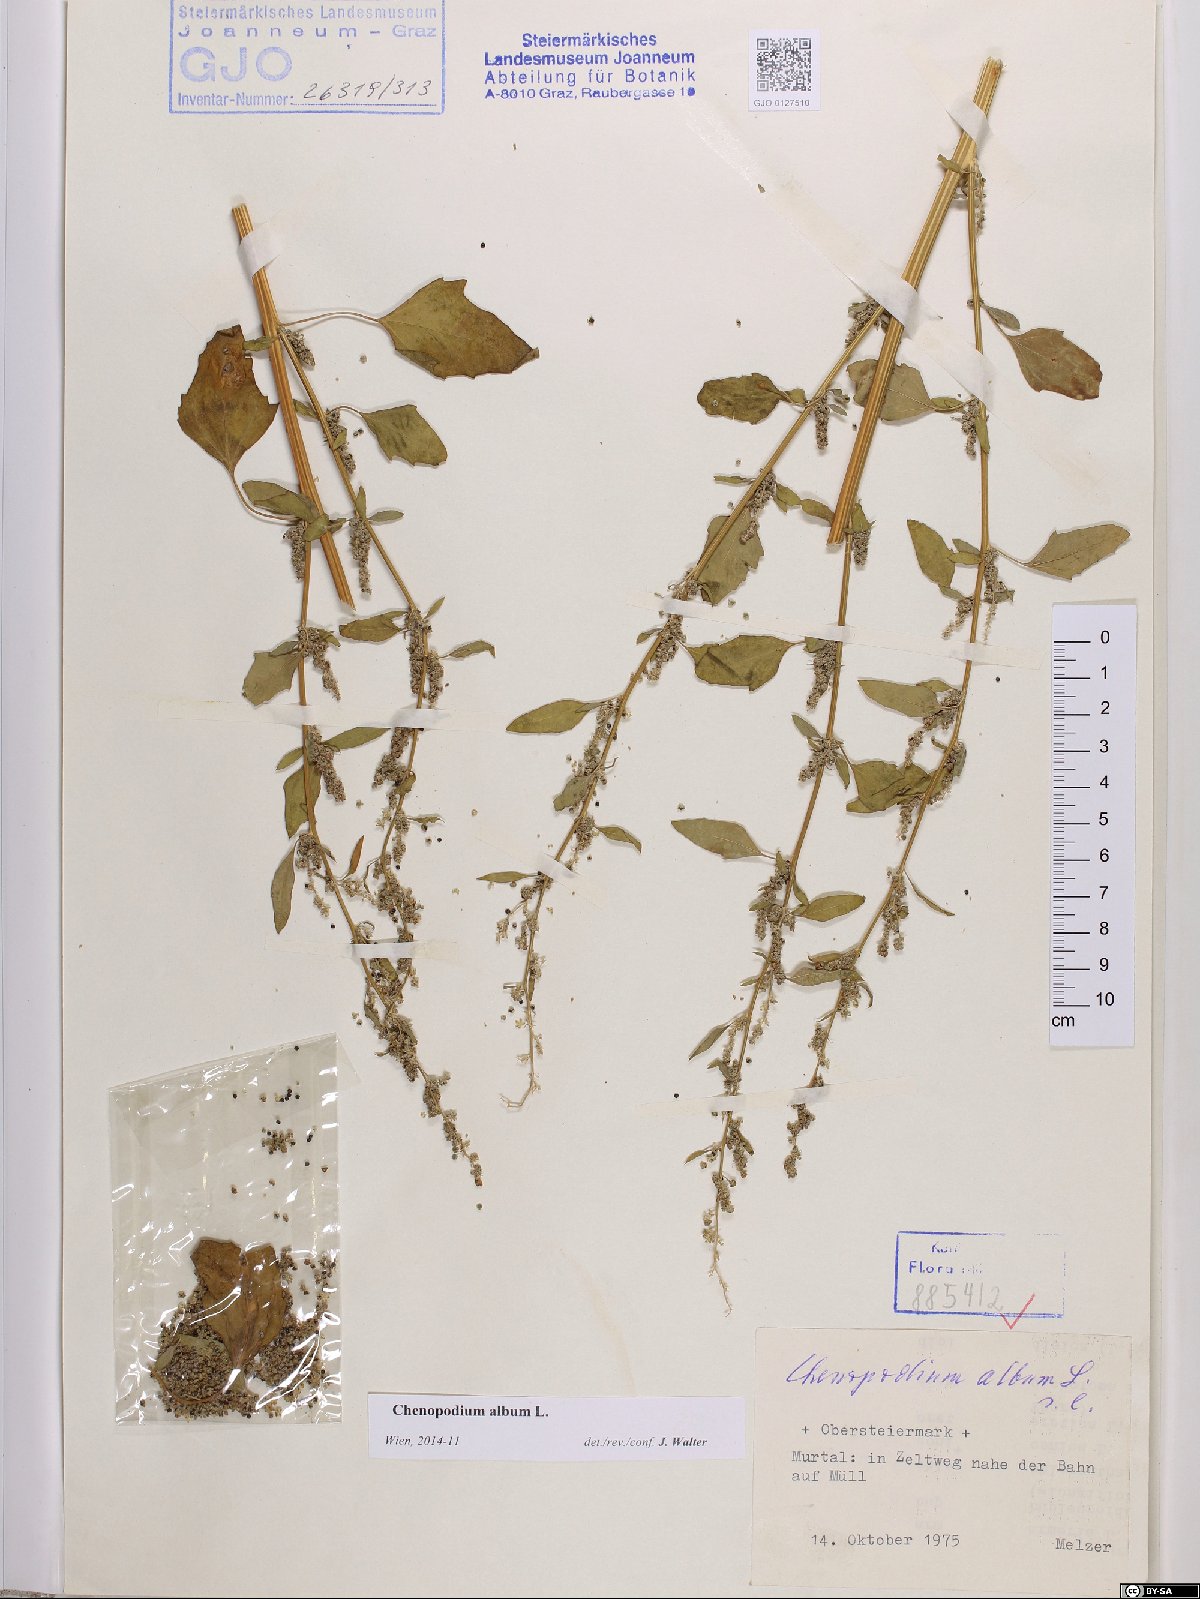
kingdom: Plantae
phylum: Tracheophyta
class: Magnoliopsida
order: Caryophyllales
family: Amaranthaceae
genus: Chenopodium
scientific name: Chenopodium album
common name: Fat-hen
